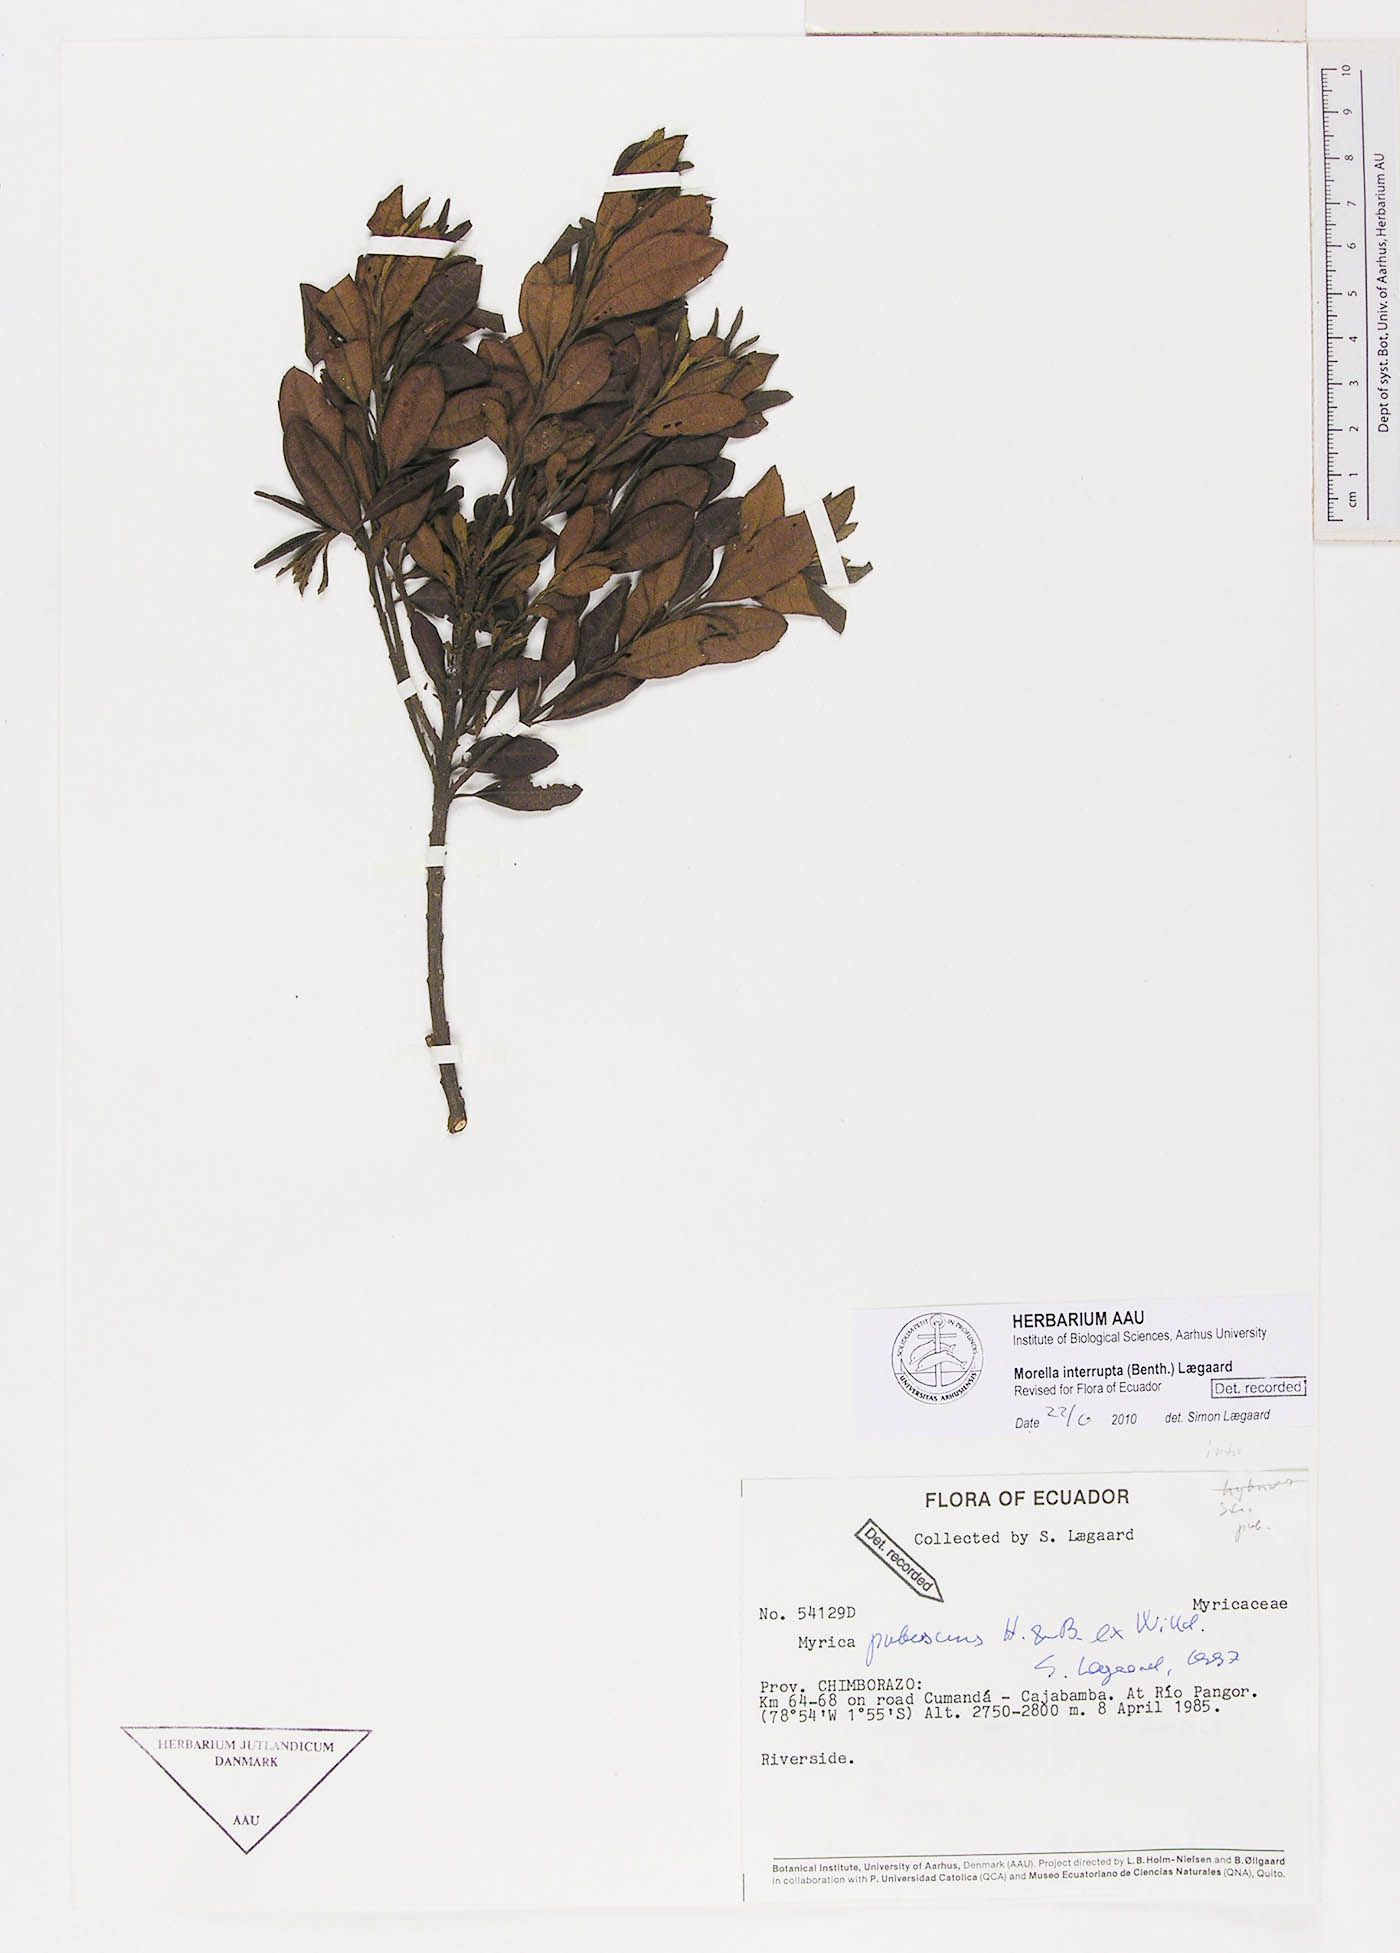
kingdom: Plantae
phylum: Tracheophyta
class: Magnoliopsida
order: Fagales
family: Myricaceae
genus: Morella
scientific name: Morella interrupta
